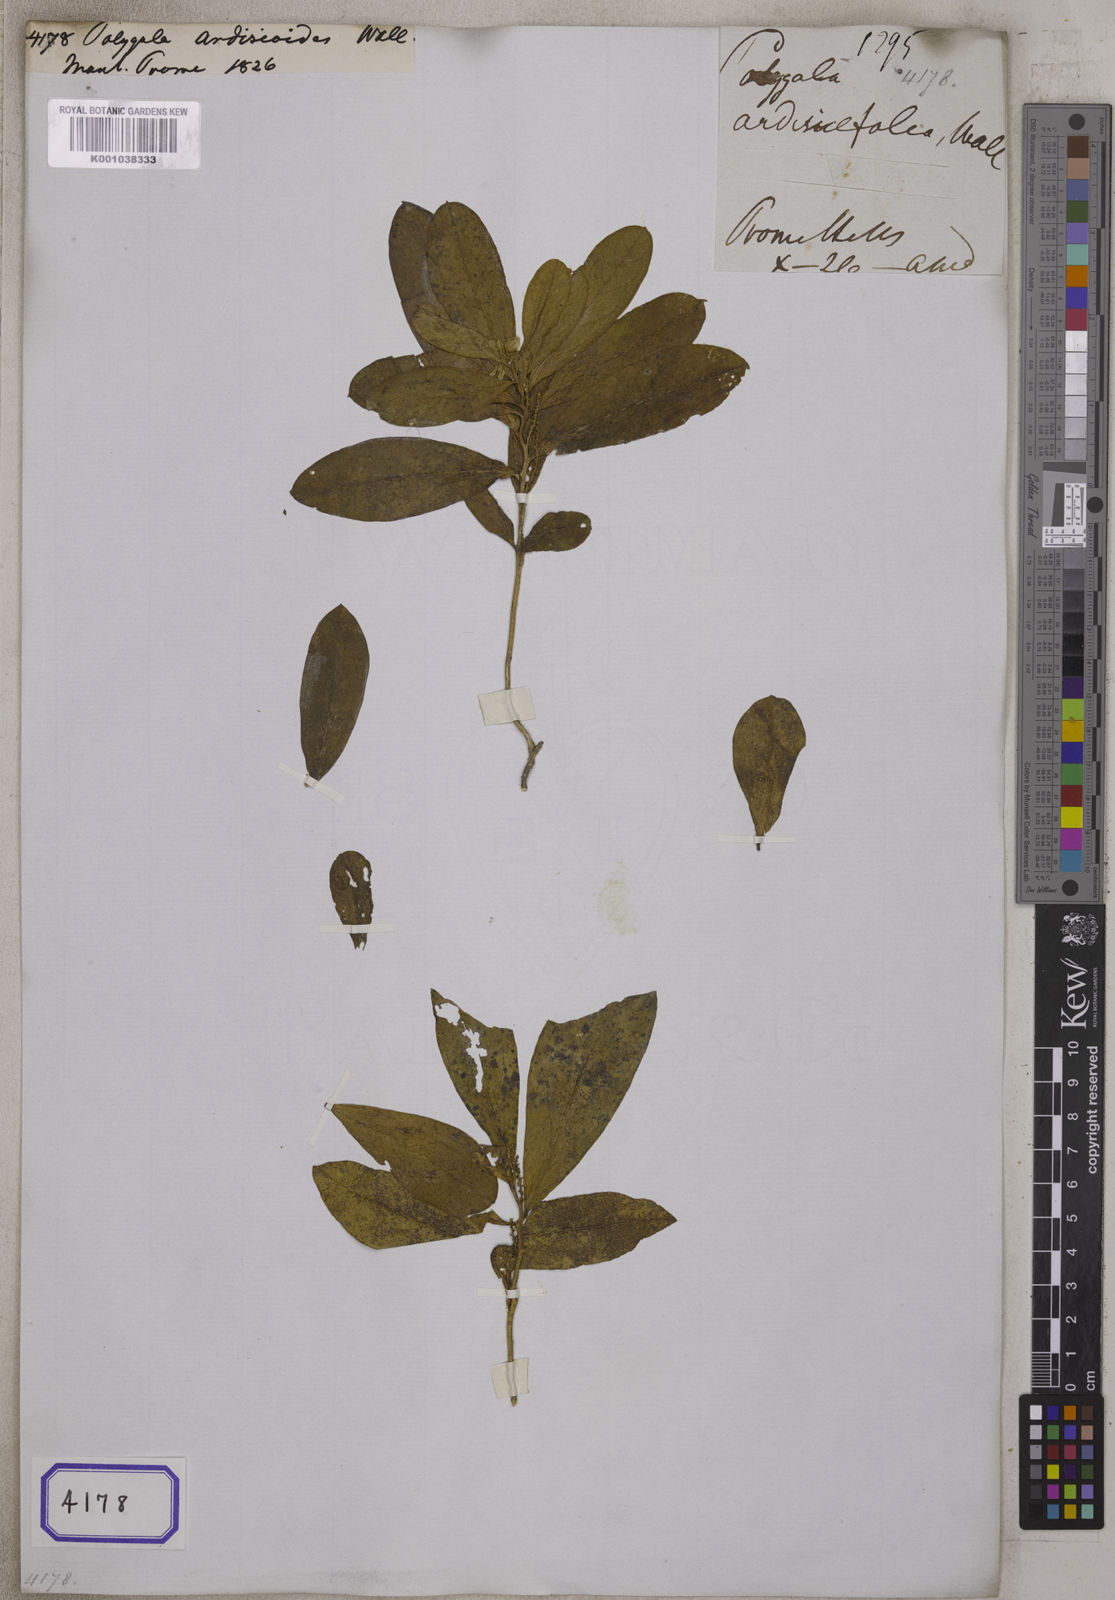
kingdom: Plantae
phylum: Tracheophyta
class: Magnoliopsida
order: Fabales
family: Polygalaceae
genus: Polygala
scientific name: Polygala
